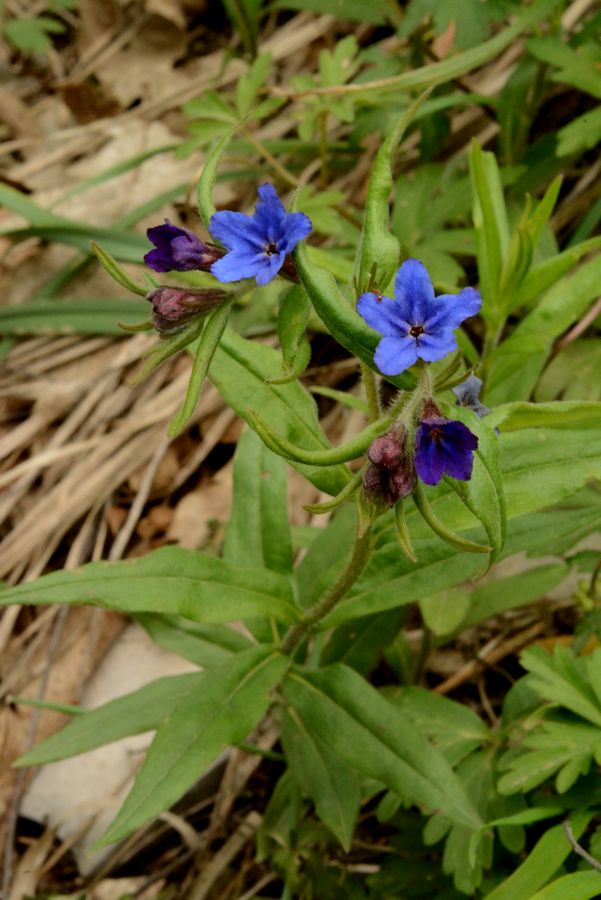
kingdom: Plantae
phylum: Tracheophyta
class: Magnoliopsida
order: Boraginales
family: Boraginaceae
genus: Aegonychon
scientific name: Aegonychon purpurocaeruleum
